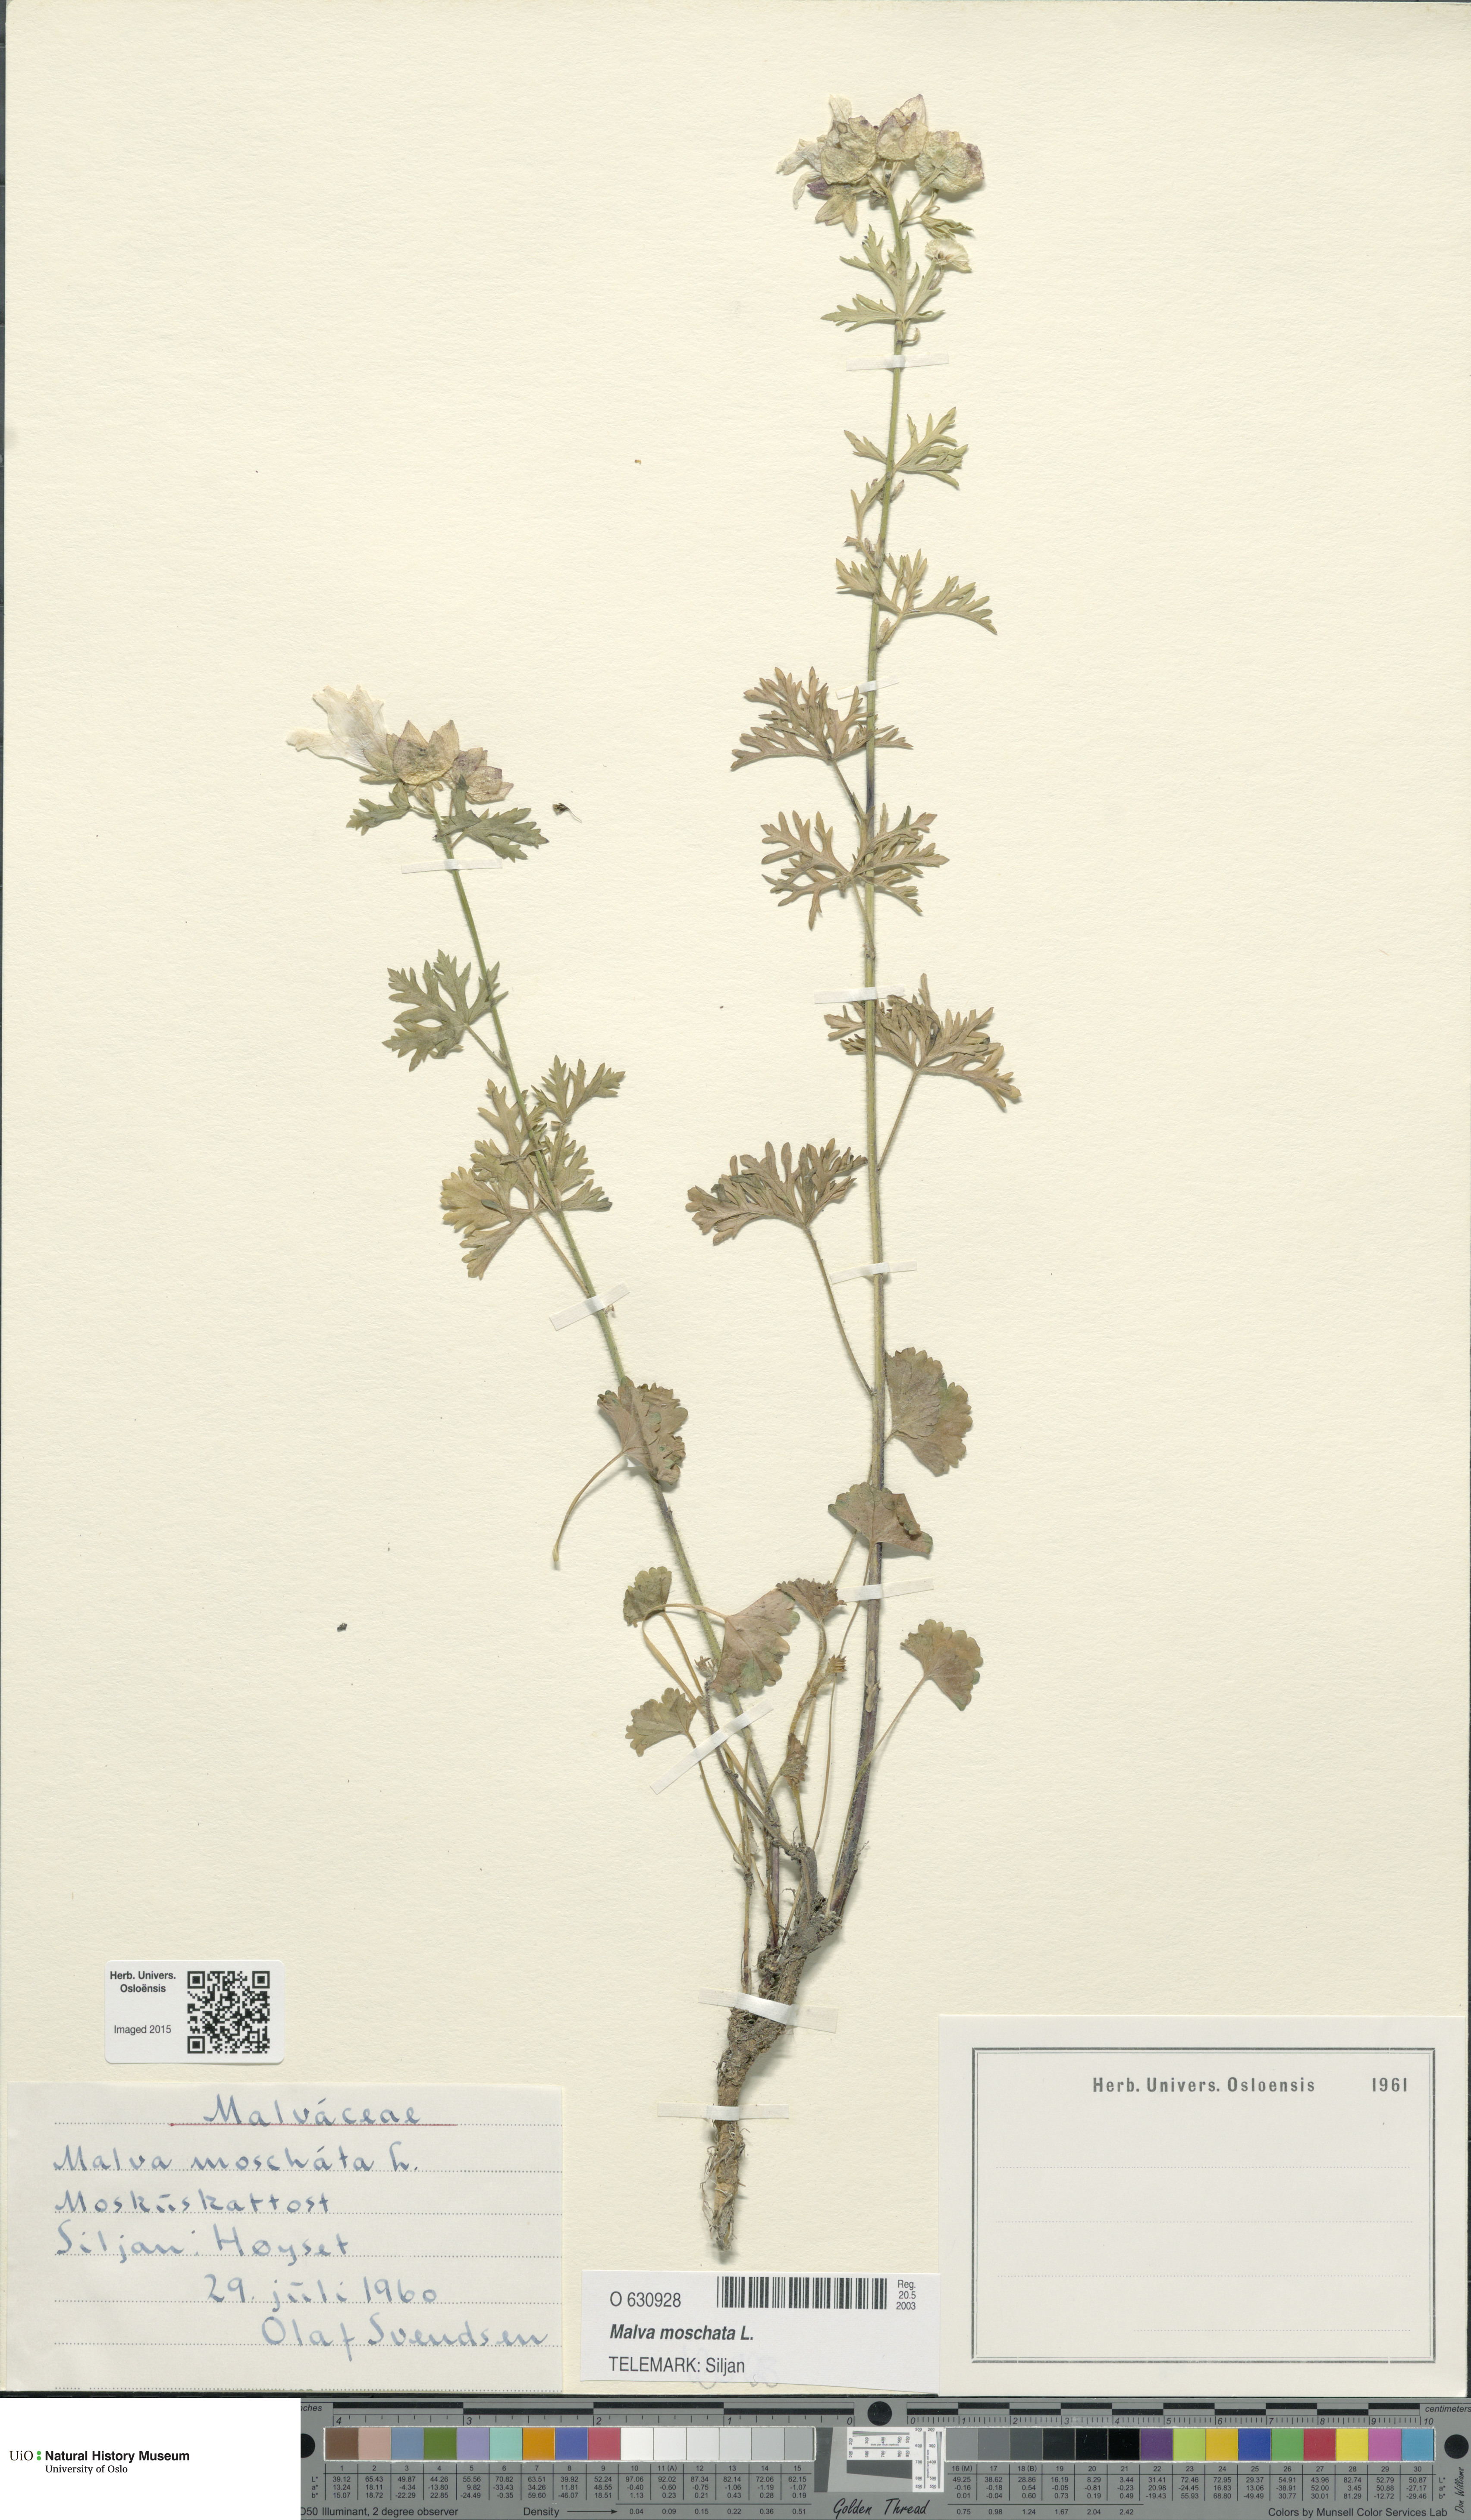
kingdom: Plantae
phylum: Tracheophyta
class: Magnoliopsida
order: Malvales
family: Malvaceae
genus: Malva
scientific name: Malva moschata
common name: Musk mallow
